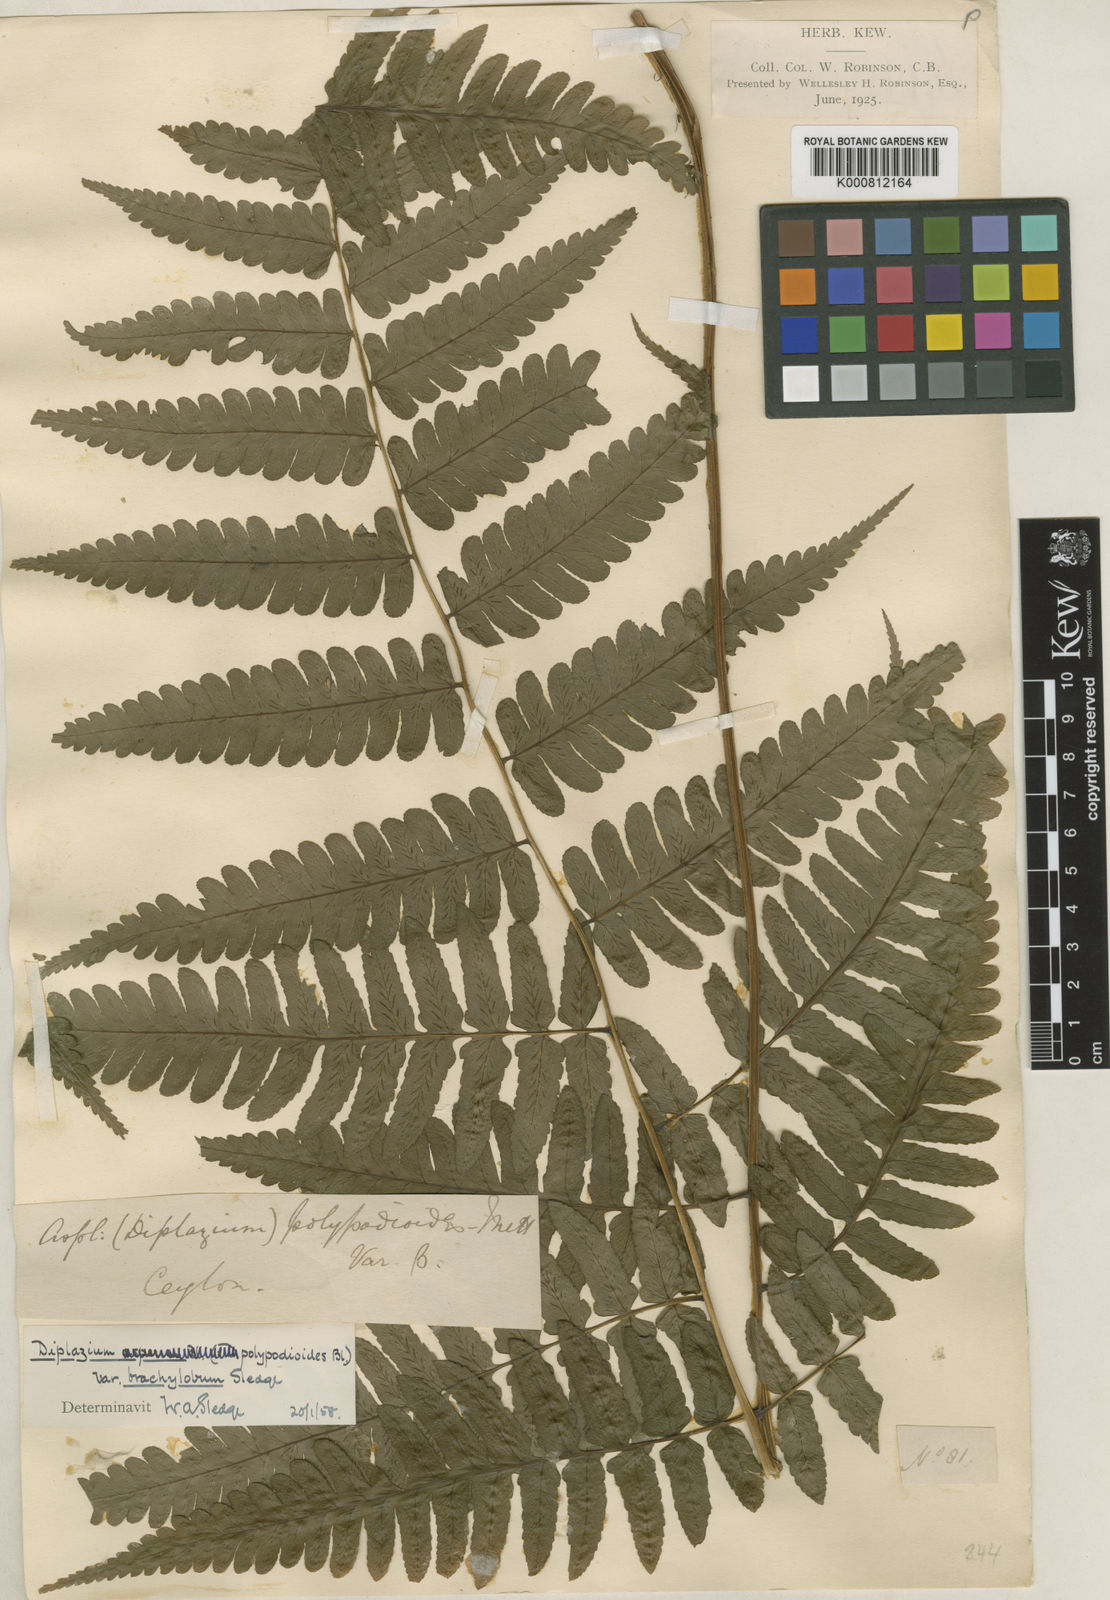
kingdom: Plantae
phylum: Tracheophyta
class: Polypodiopsida
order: Polypodiales
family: Athyriaceae
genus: Diplazium
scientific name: Diplazium polypodioides
